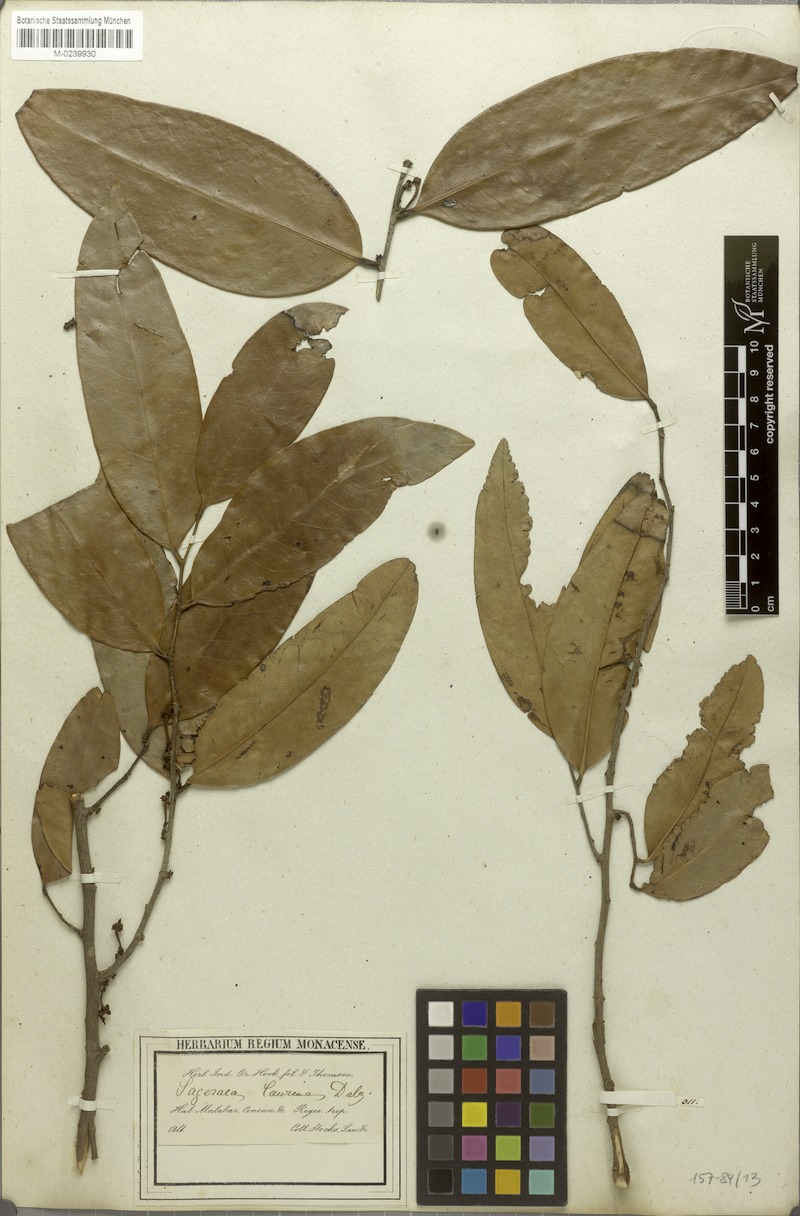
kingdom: Plantae
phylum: Tracheophyta
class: Magnoliopsida
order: Magnoliales
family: Annonaceae
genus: Sageraea
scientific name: Sageraea laurina
